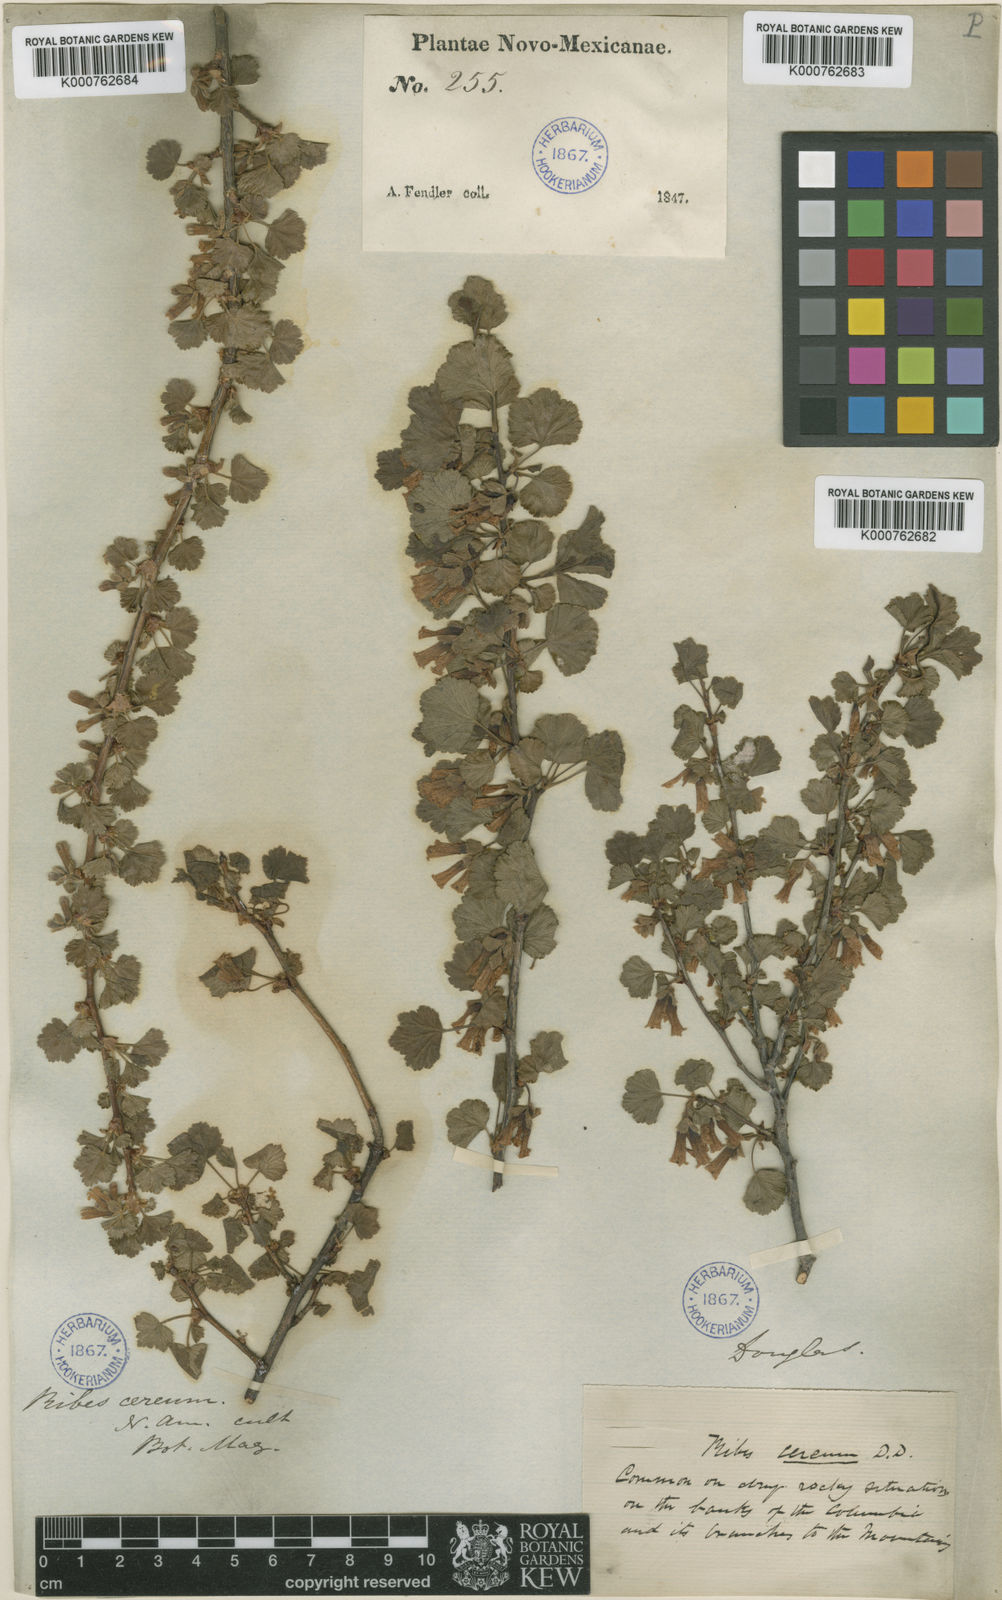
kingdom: Plantae
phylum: Tracheophyta
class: Magnoliopsida
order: Saxifragales
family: Grossulariaceae
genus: Ribes
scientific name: Ribes cereum
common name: Wax currant
